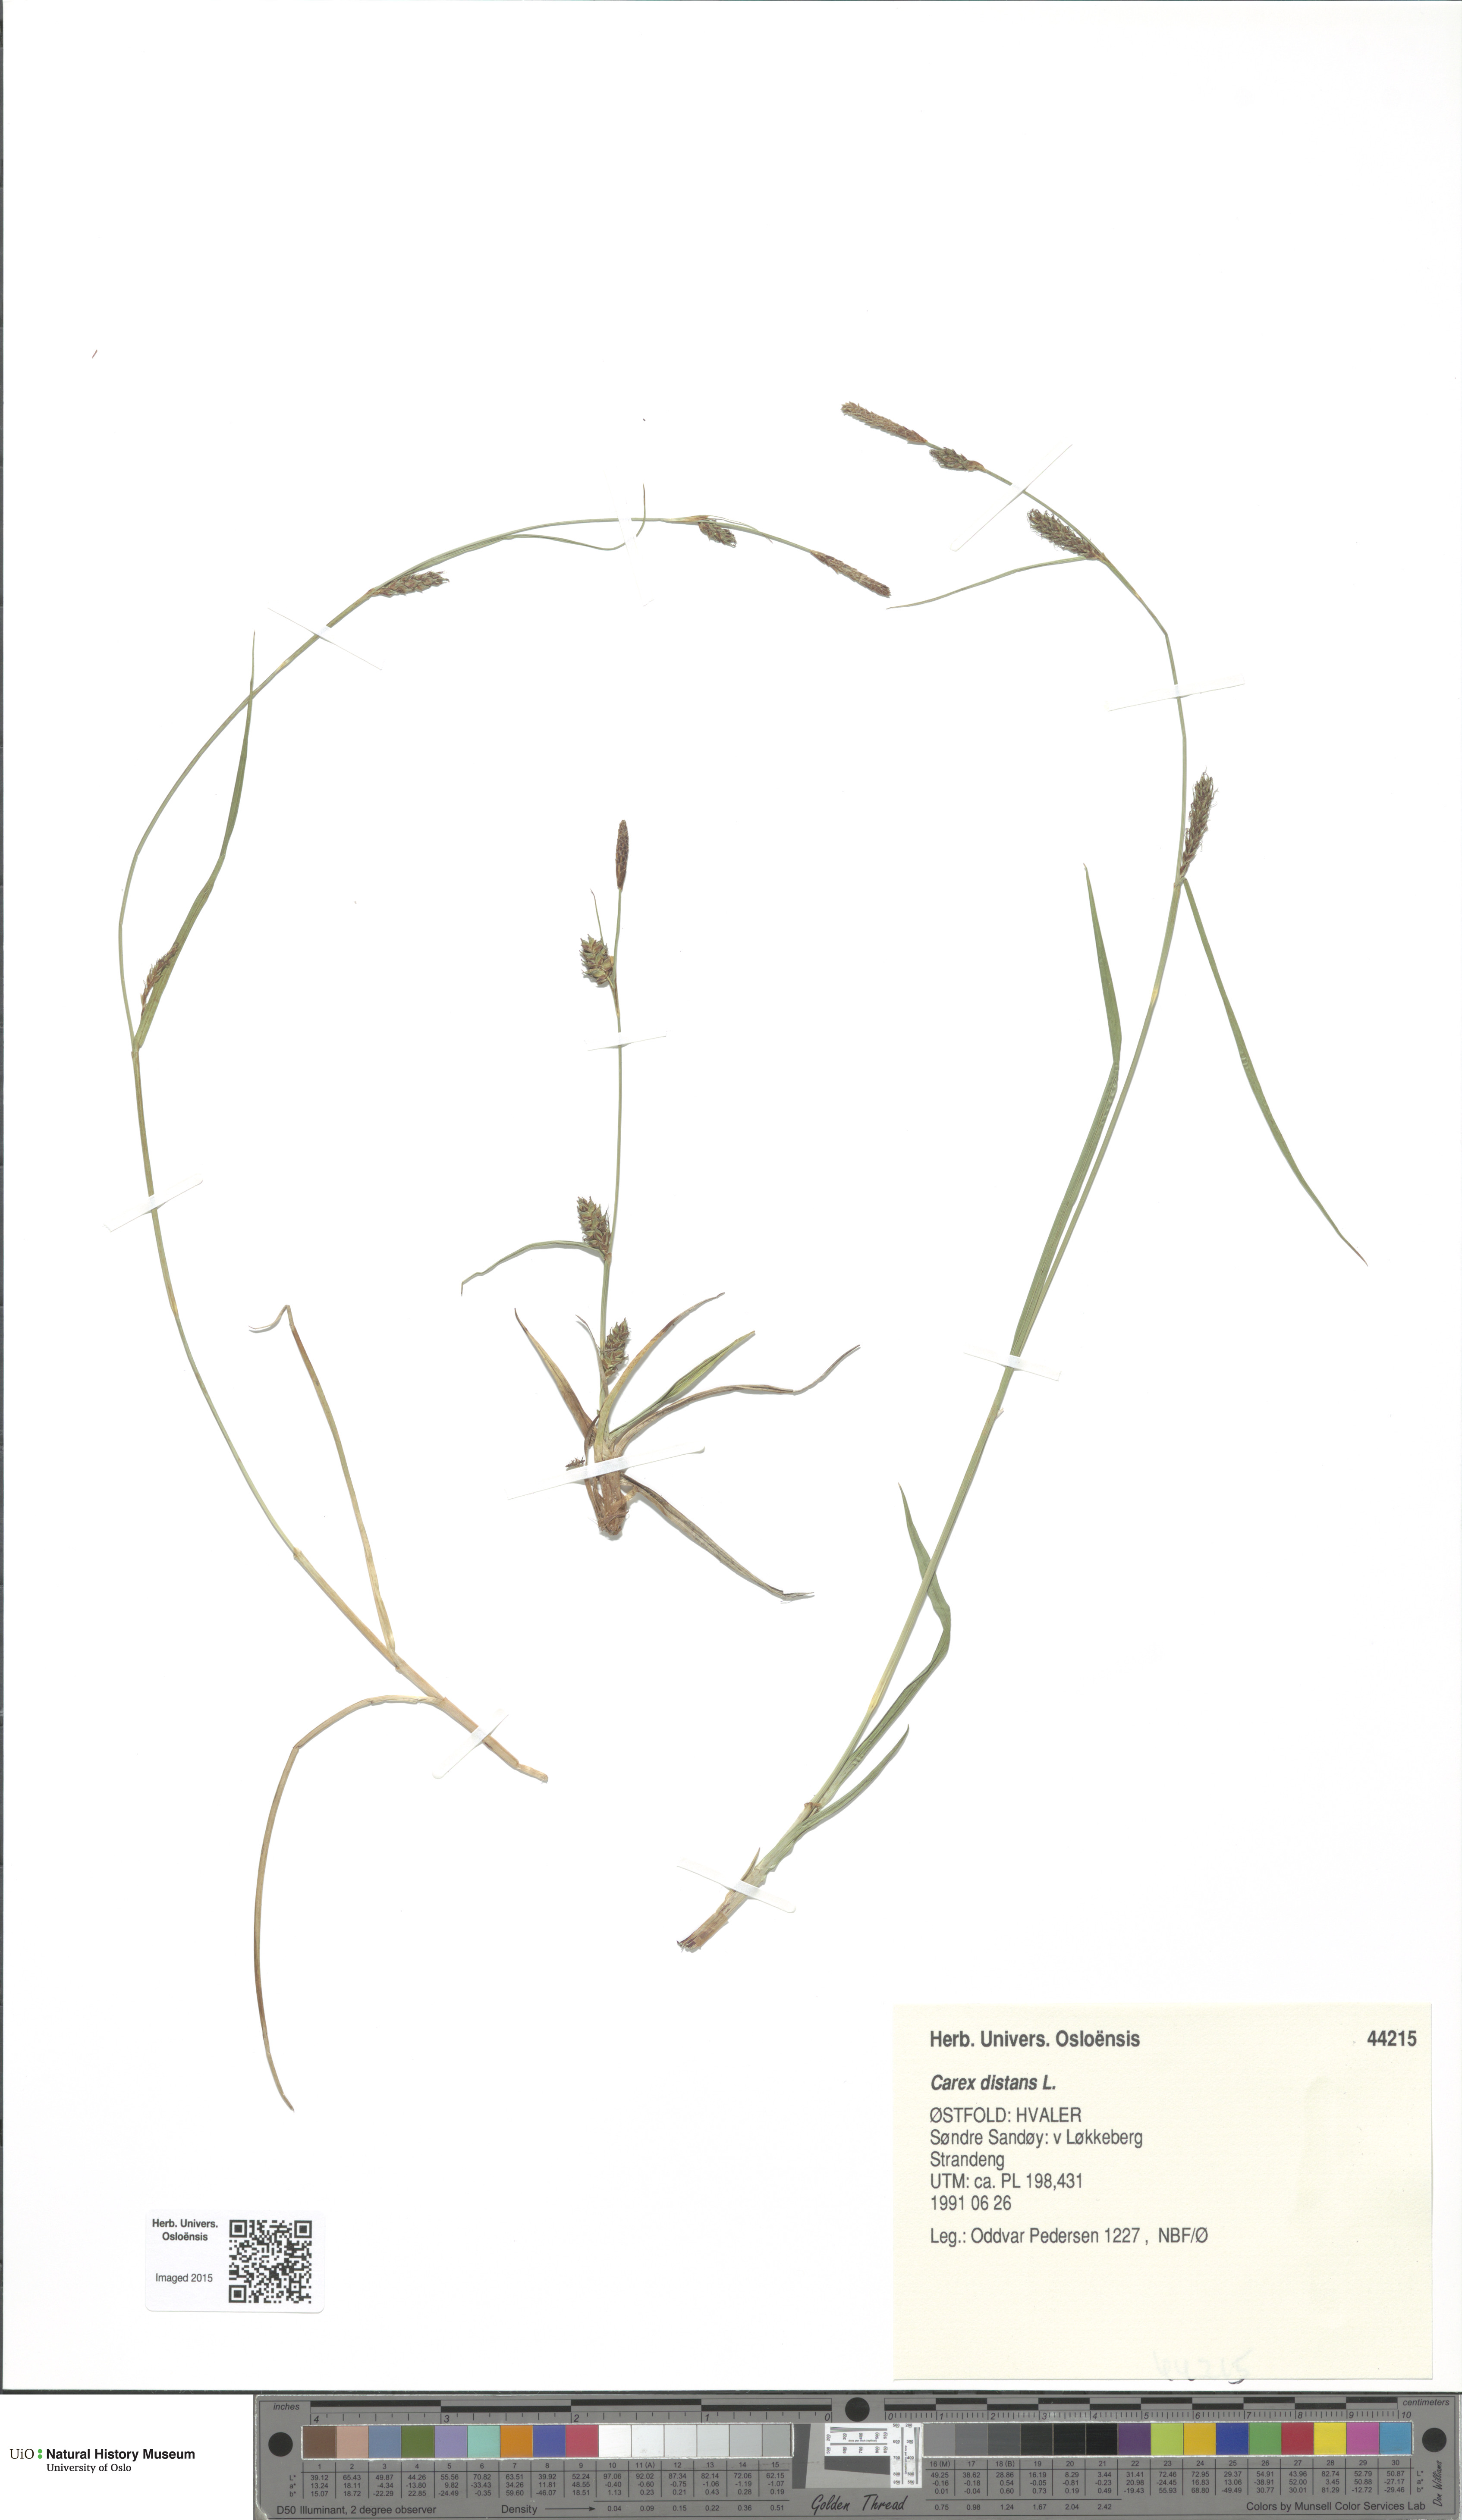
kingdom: Plantae
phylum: Tracheophyta
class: Liliopsida
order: Poales
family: Cyperaceae
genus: Carex
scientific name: Carex distans
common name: Distant sedge
